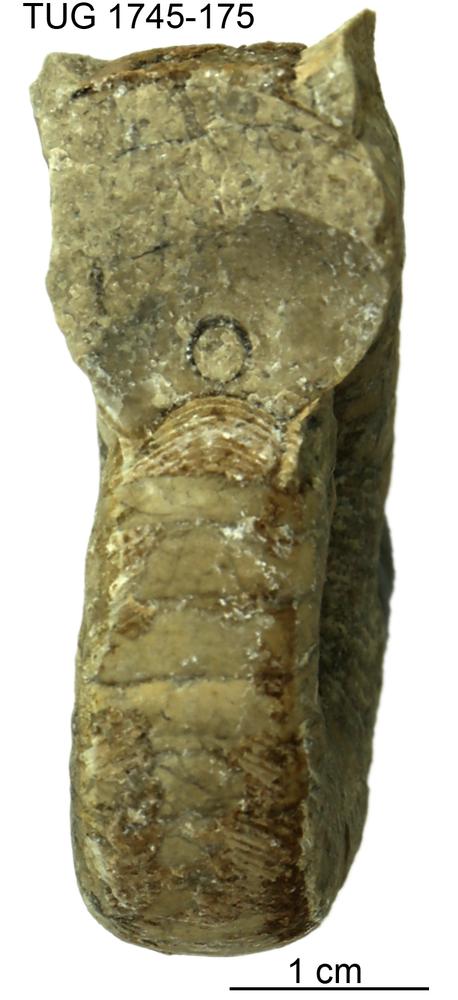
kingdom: Animalia
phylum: Mollusca
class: Cephalopoda
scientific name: Cephalopoda
